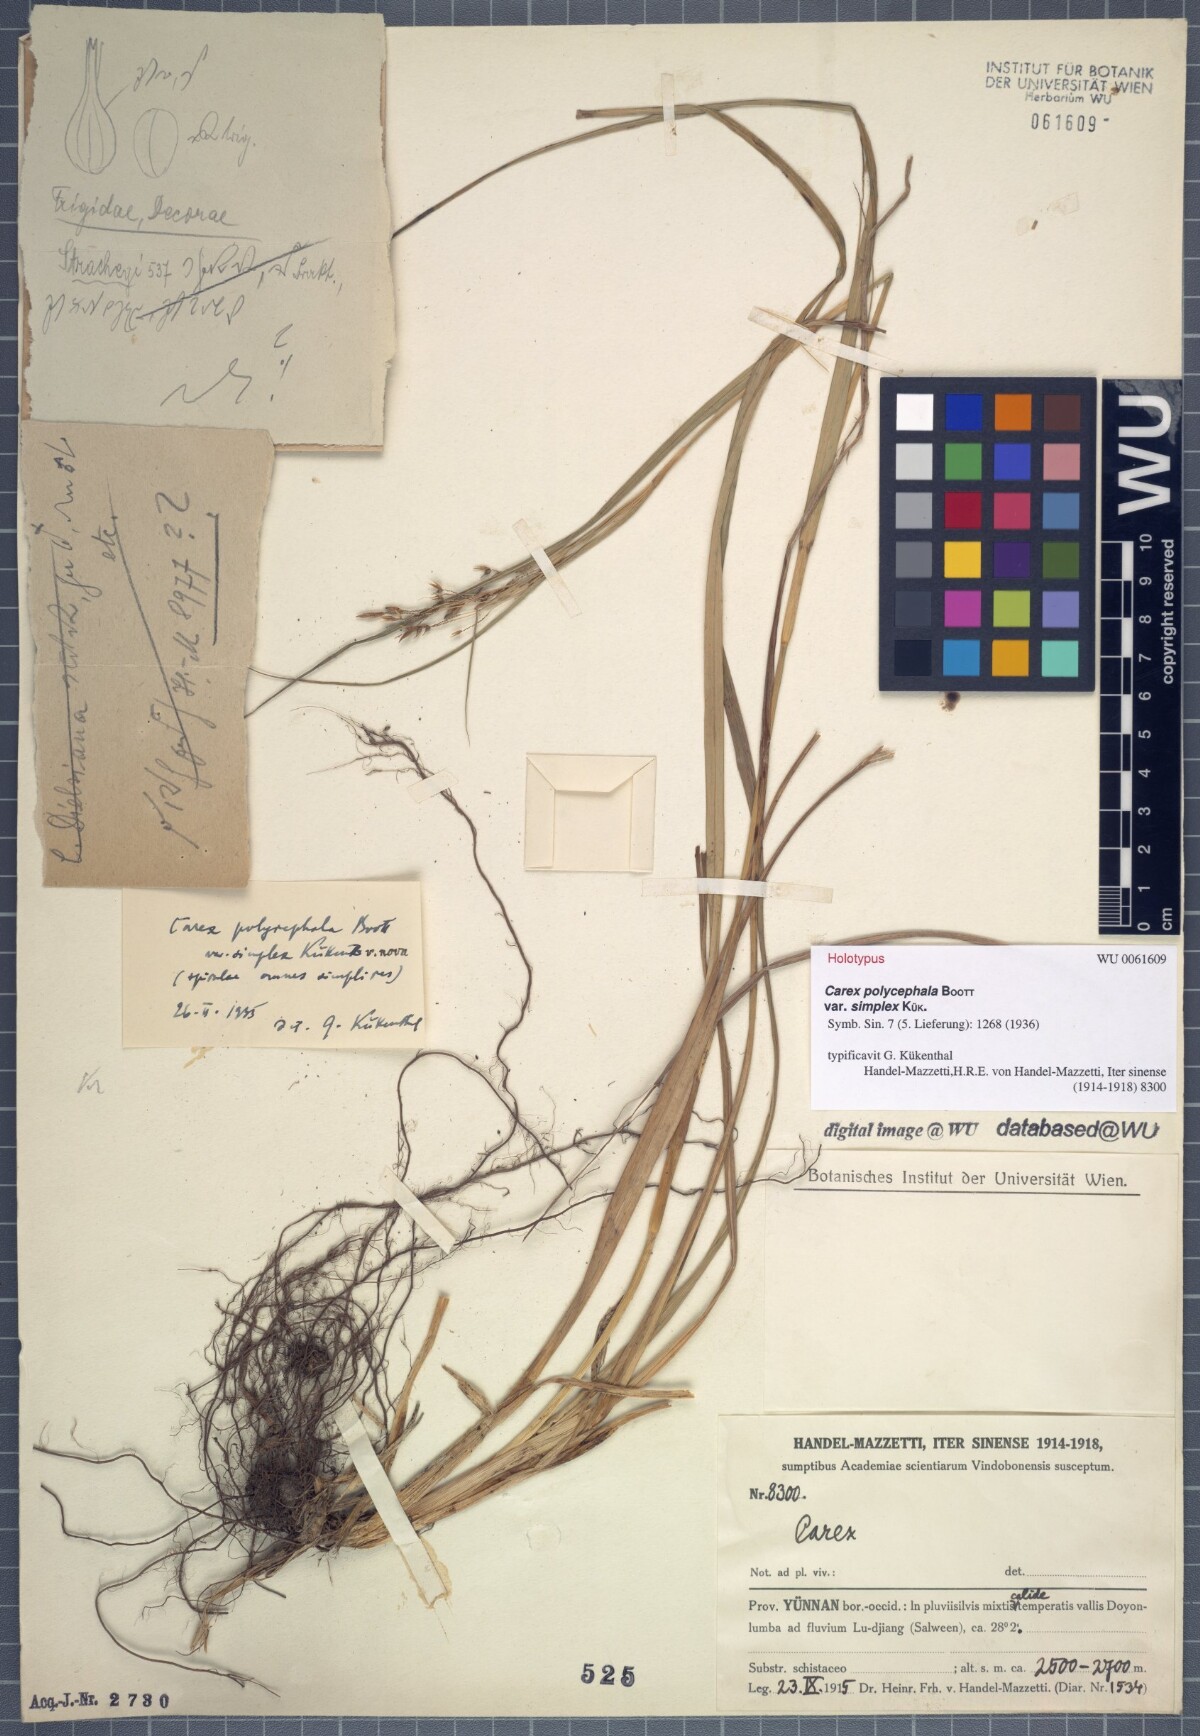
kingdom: Plantae
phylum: Tracheophyta
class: Liliopsida
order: Poales
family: Cyperaceae
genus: Carex
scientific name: Carex polycephala
